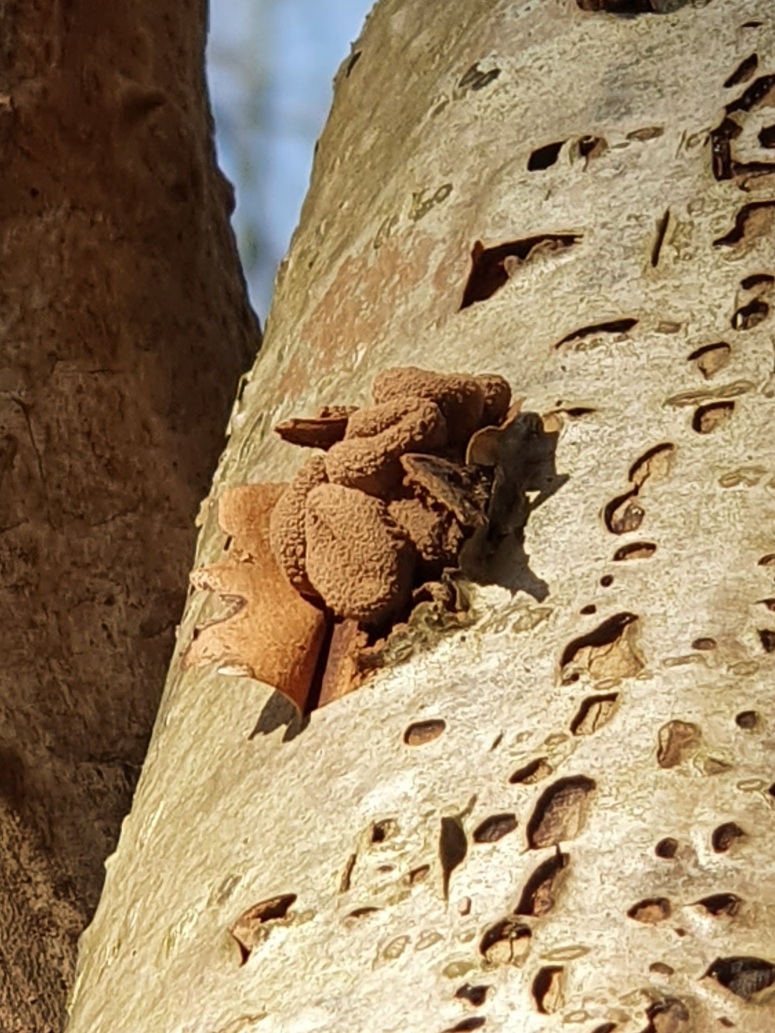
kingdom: Fungi
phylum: Ascomycota
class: Leotiomycetes
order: Helotiales
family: Cenangiaceae
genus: Encoelia
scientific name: Encoelia furfuracea
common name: hassel-læderskive
